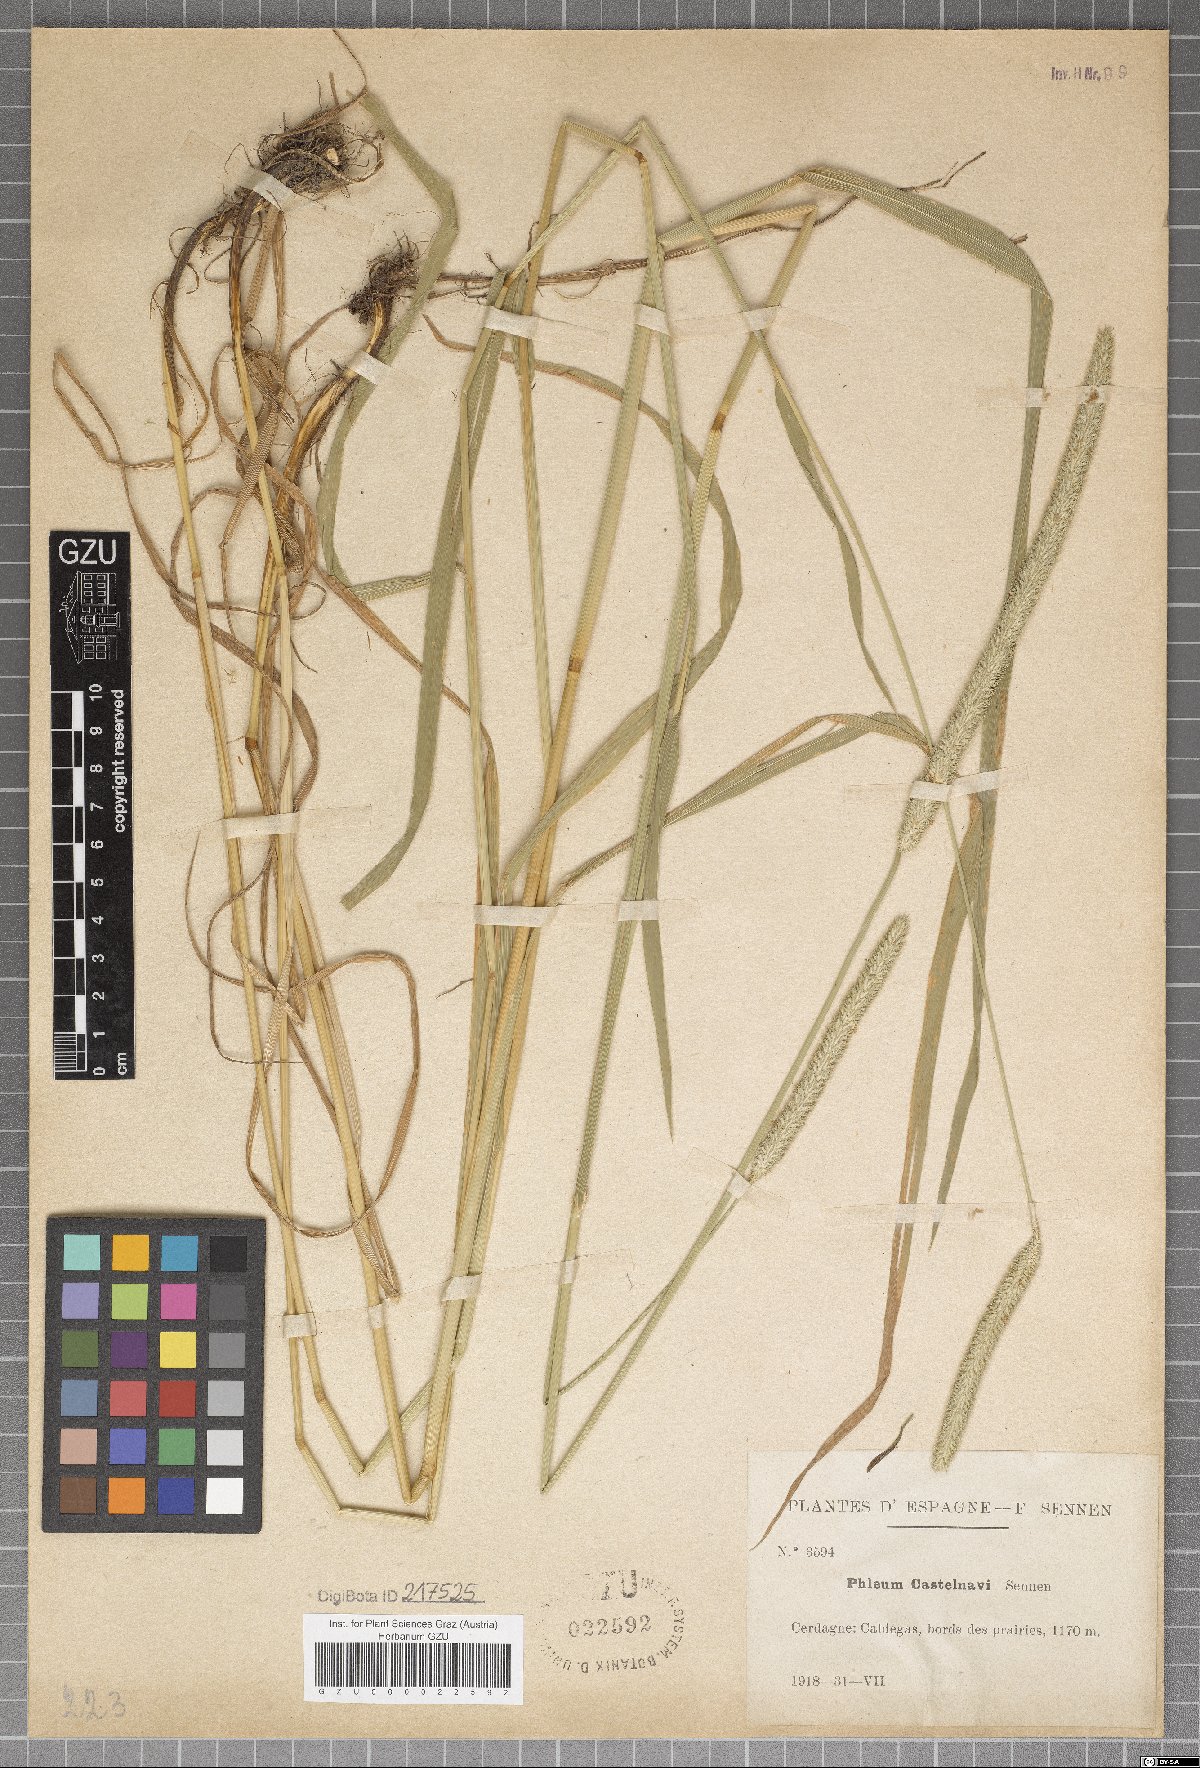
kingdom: Plantae
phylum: Tracheophyta
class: Liliopsida
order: Poales
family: Poaceae
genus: Phleum
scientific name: Phleum bertolonii
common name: Smaller cat's-tail
